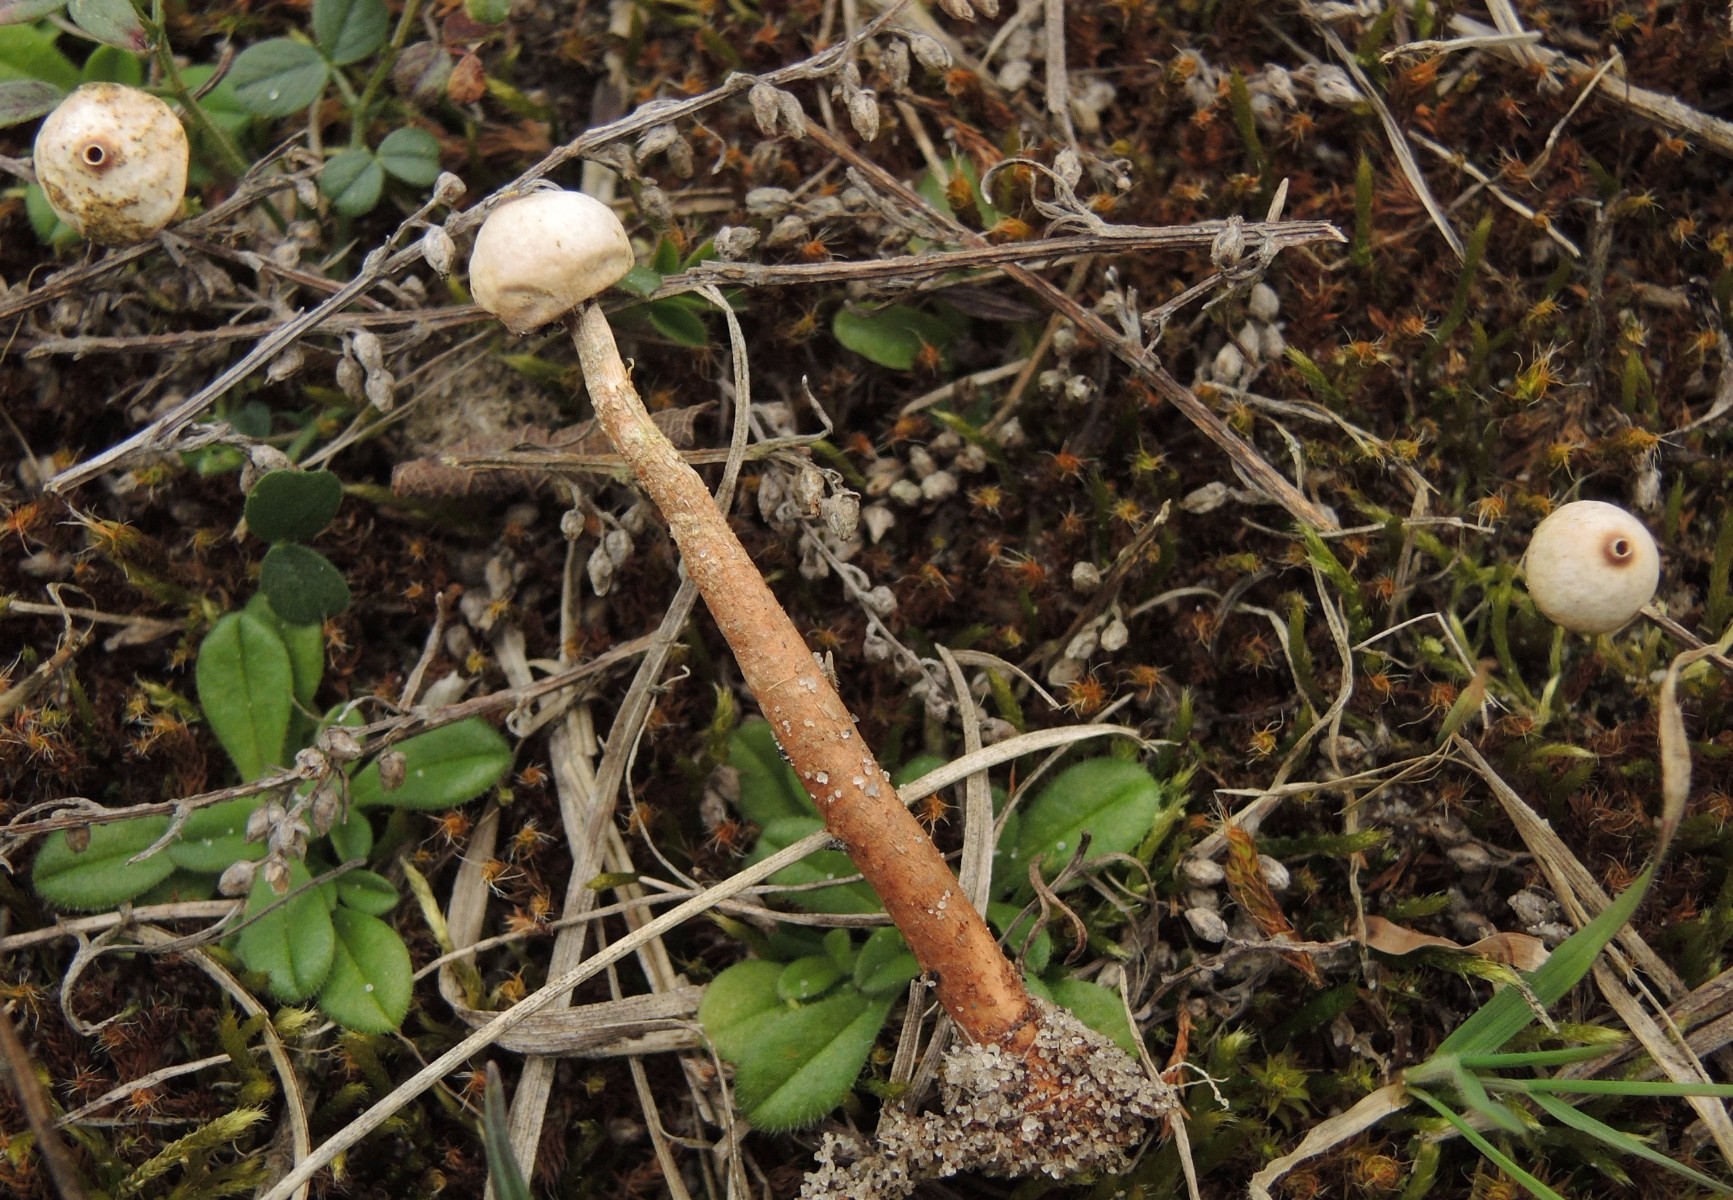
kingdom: Fungi
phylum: Basidiomycota
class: Agaricomycetes
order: Agaricales
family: Agaricaceae
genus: Tulostoma
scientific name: Tulostoma brumale
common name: vinter-stilkbovist
